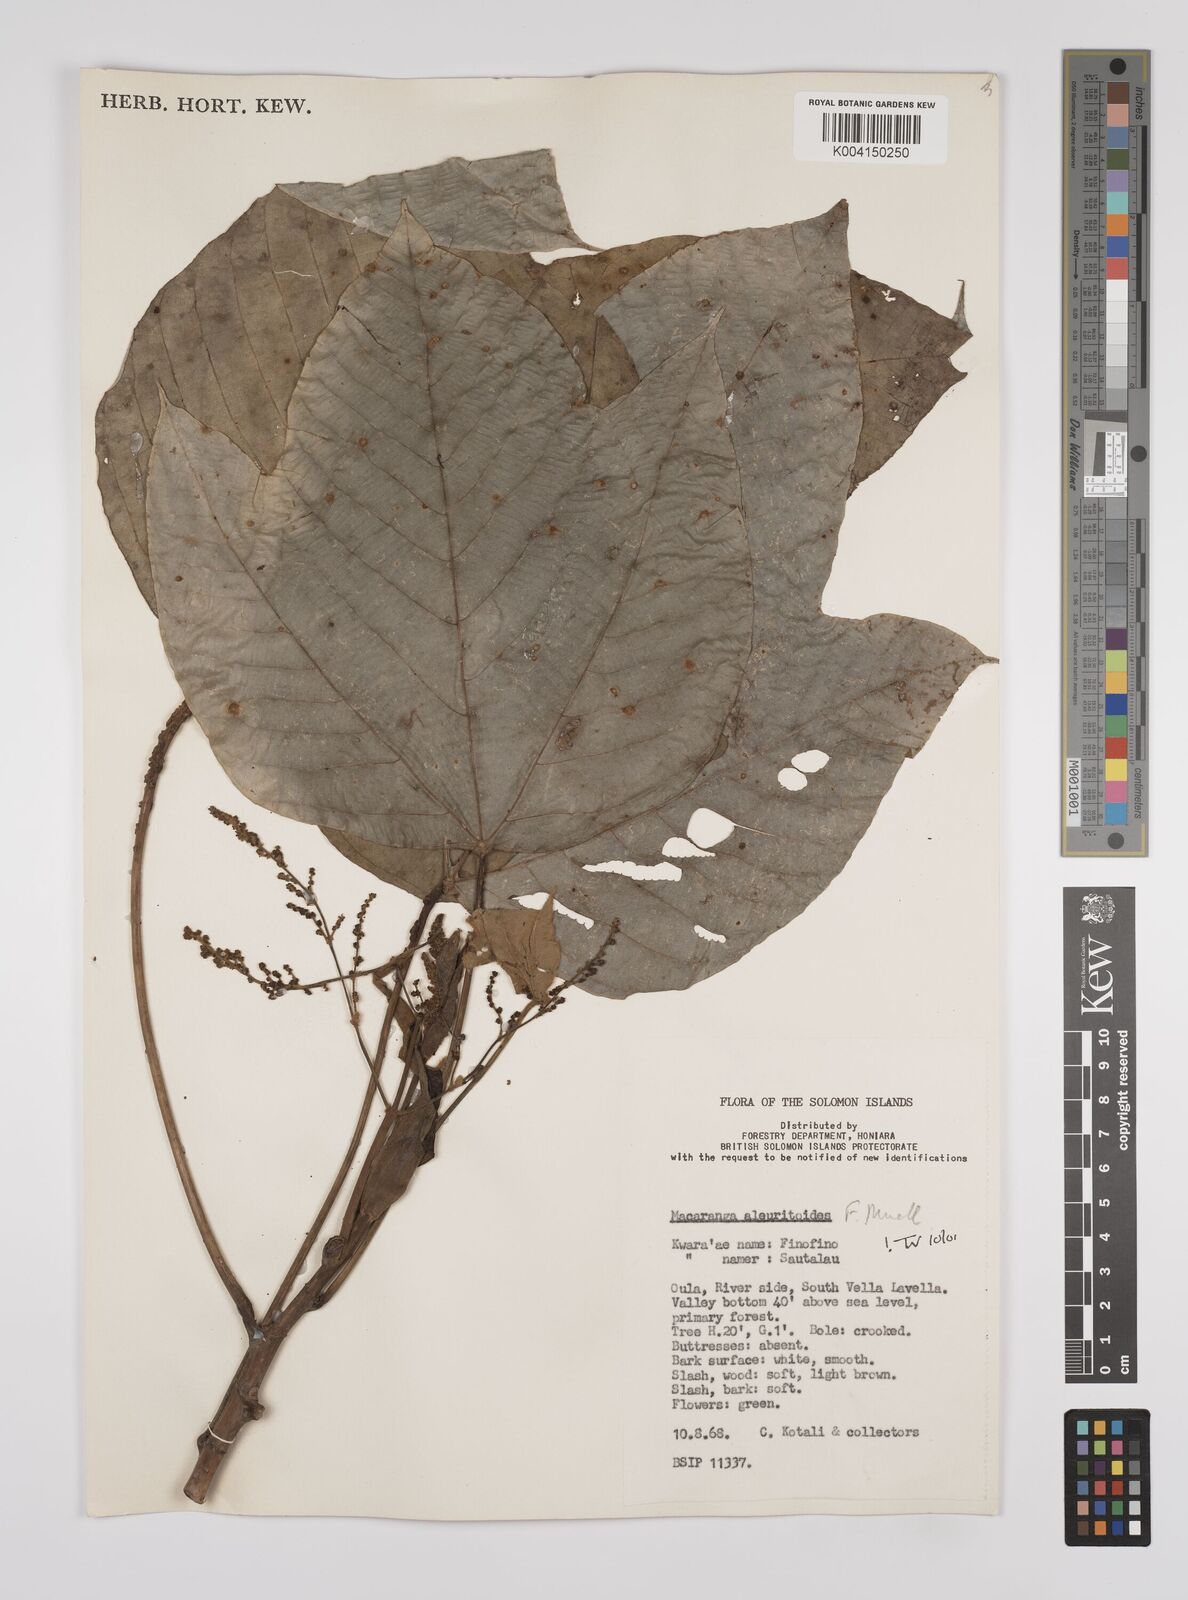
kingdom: Plantae
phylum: Tracheophyta
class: Magnoliopsida
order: Malpighiales
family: Euphorbiaceae
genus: Macaranga
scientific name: Macaranga aleuritoides
